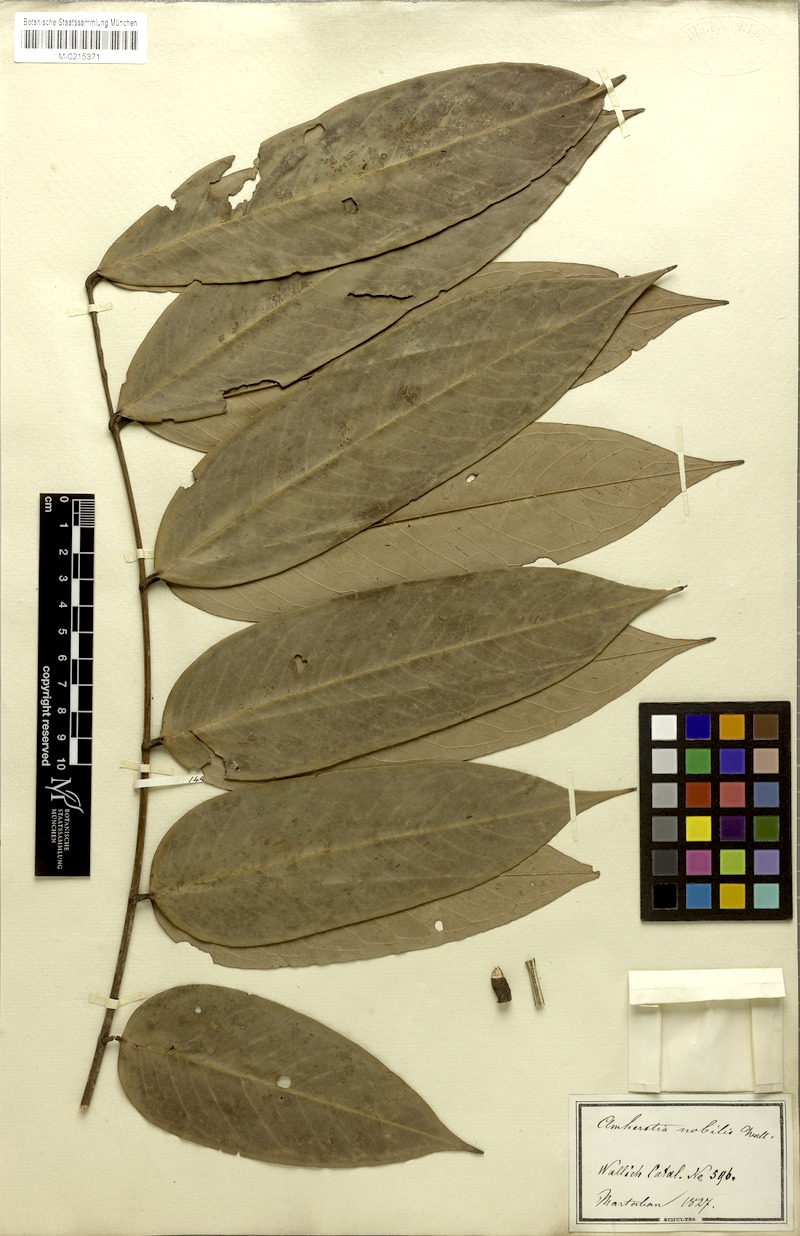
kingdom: Plantae
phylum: Tracheophyta
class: Magnoliopsida
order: Fabales
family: Fabaceae
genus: Amherstia
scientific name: Amherstia nobilis
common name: Pride-of-burma
